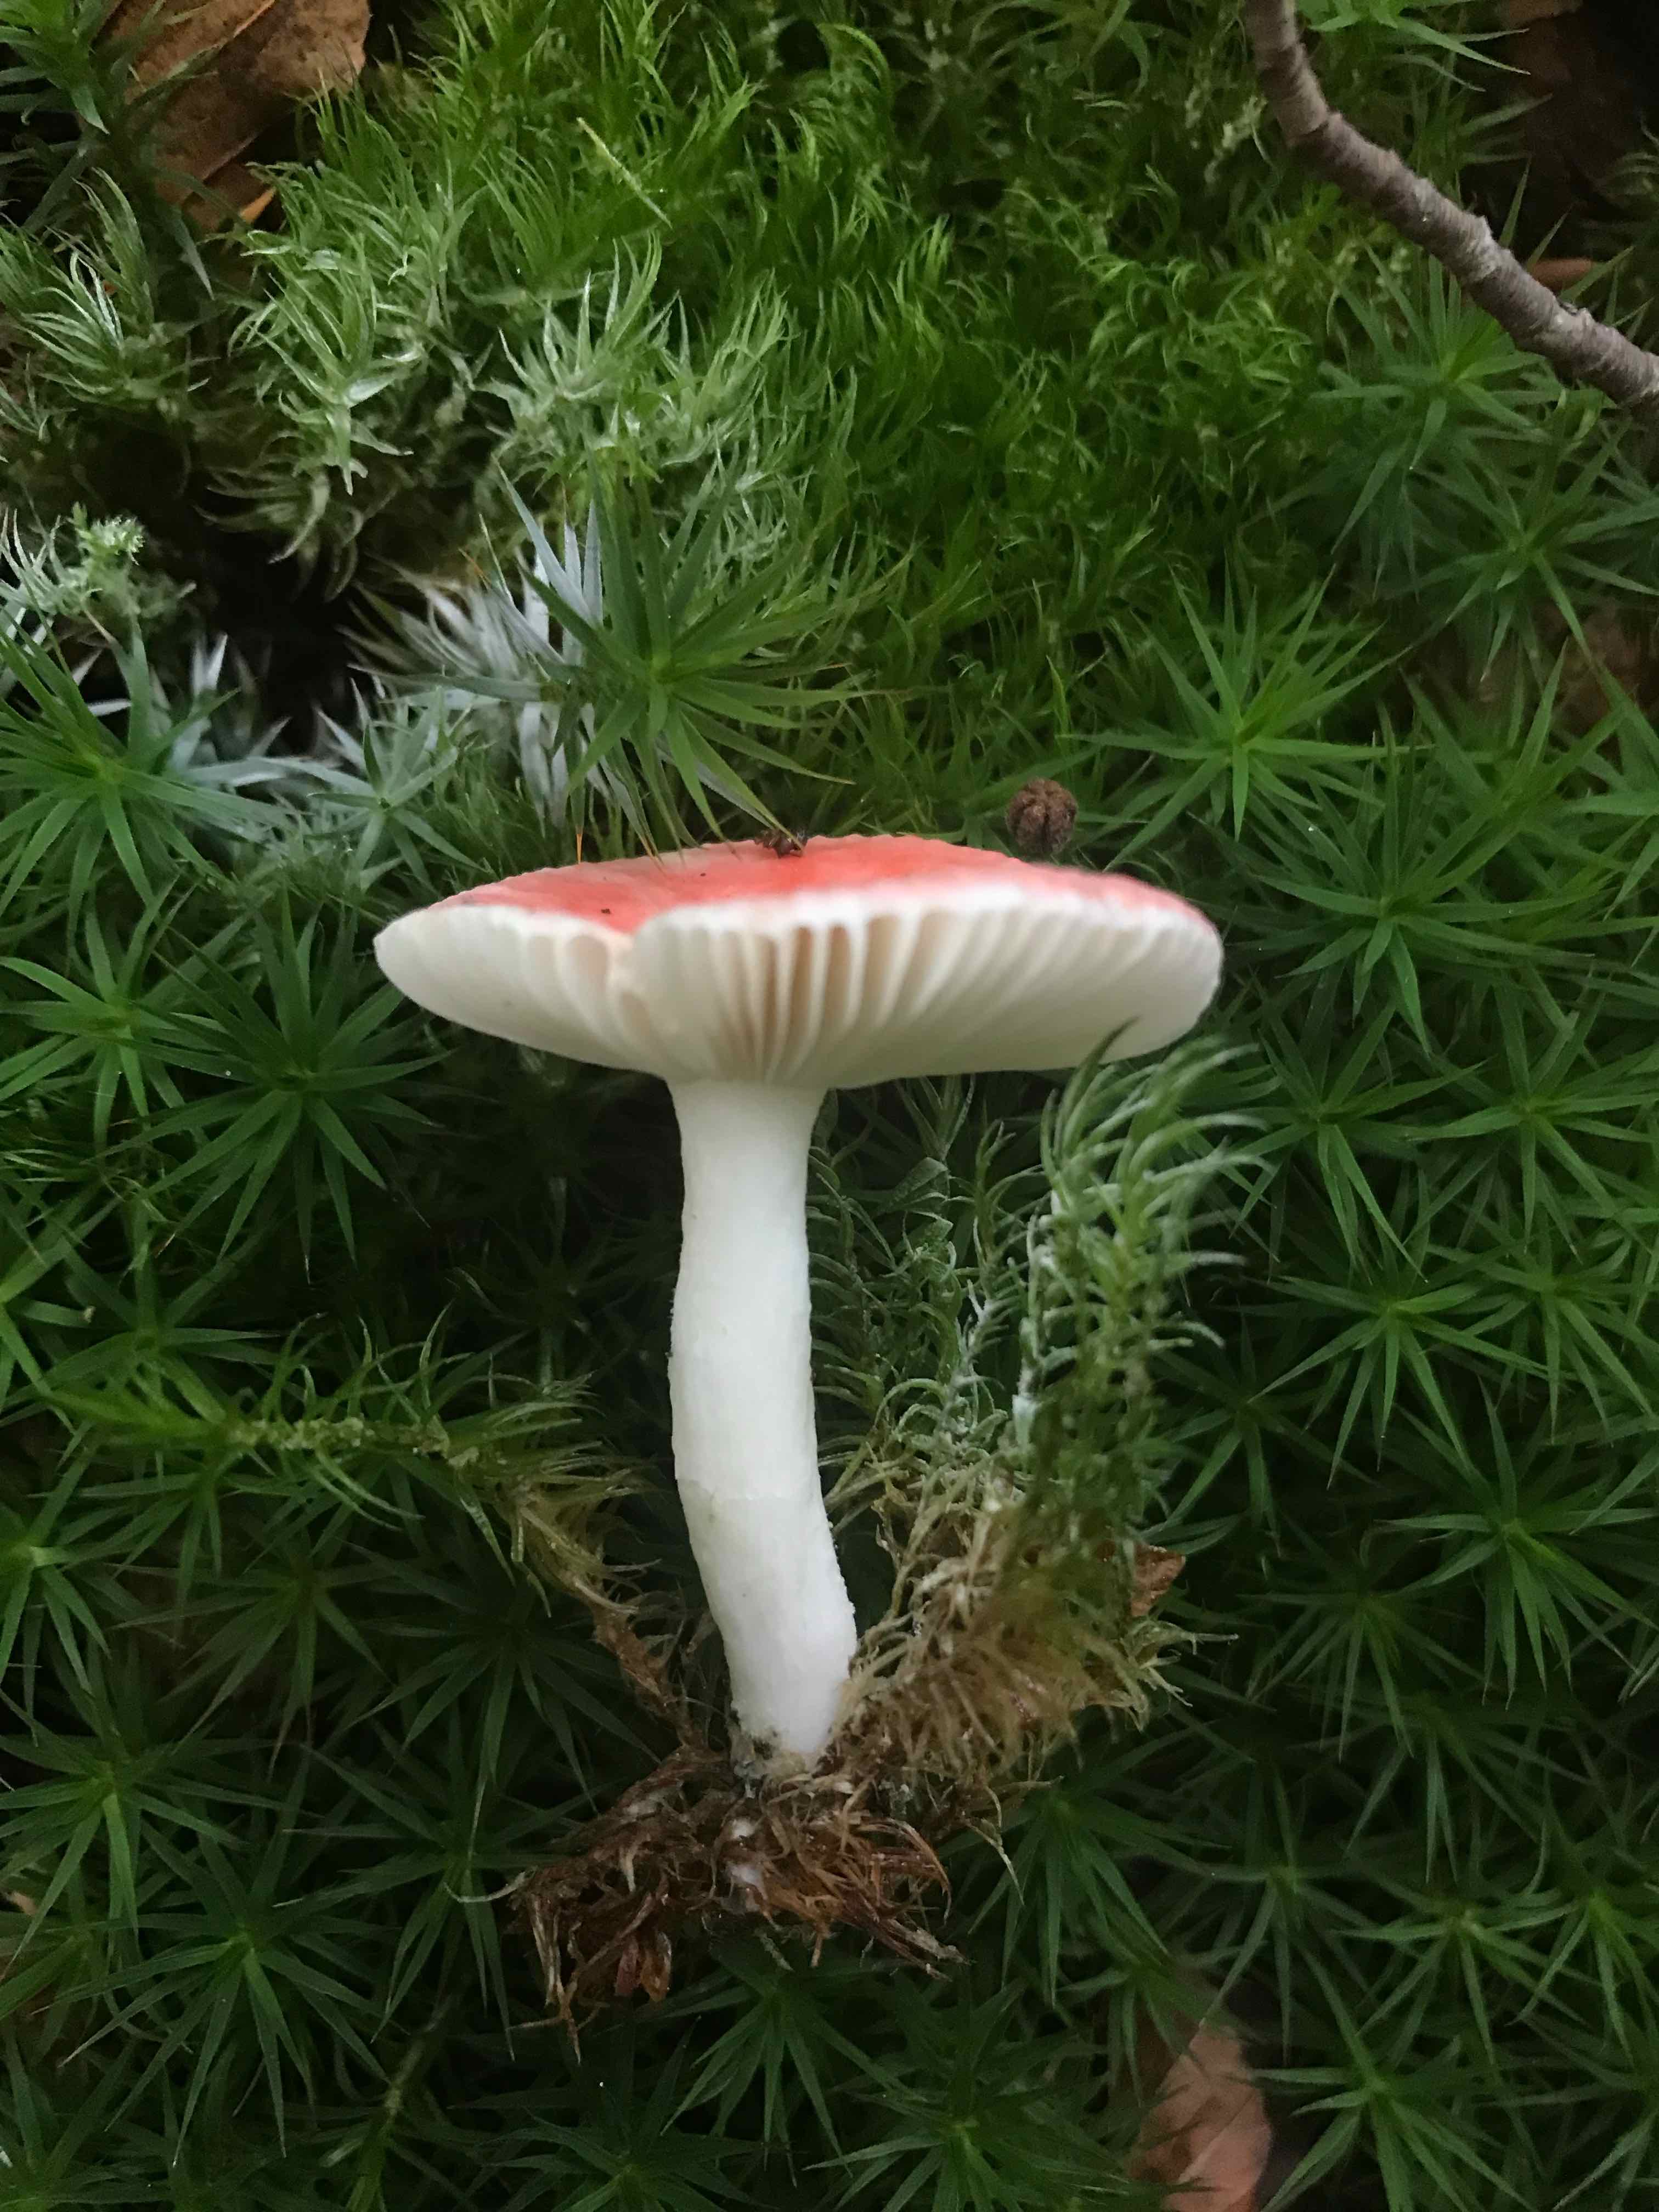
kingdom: Fungi
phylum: Basidiomycota
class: Agaricomycetes
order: Russulales
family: Russulaceae
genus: Russula
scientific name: Russula
